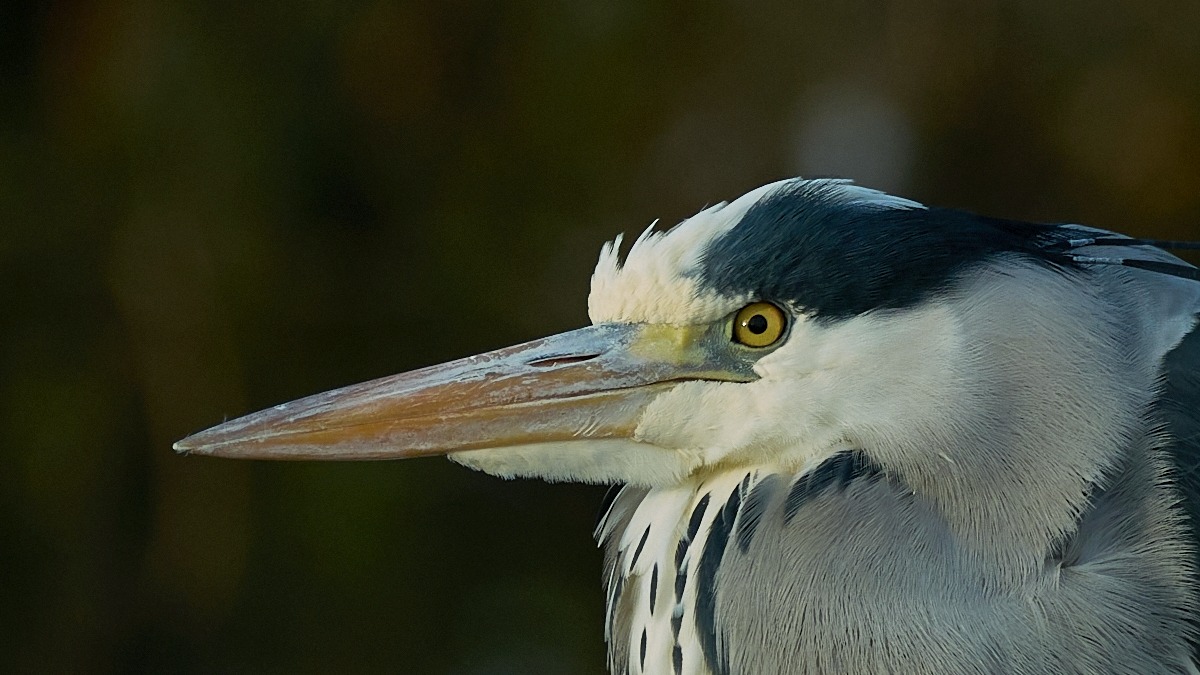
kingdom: Animalia
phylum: Chordata
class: Aves
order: Pelecaniformes
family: Ardeidae
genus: Ardea
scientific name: Ardea cinerea
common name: Fiskehejre
